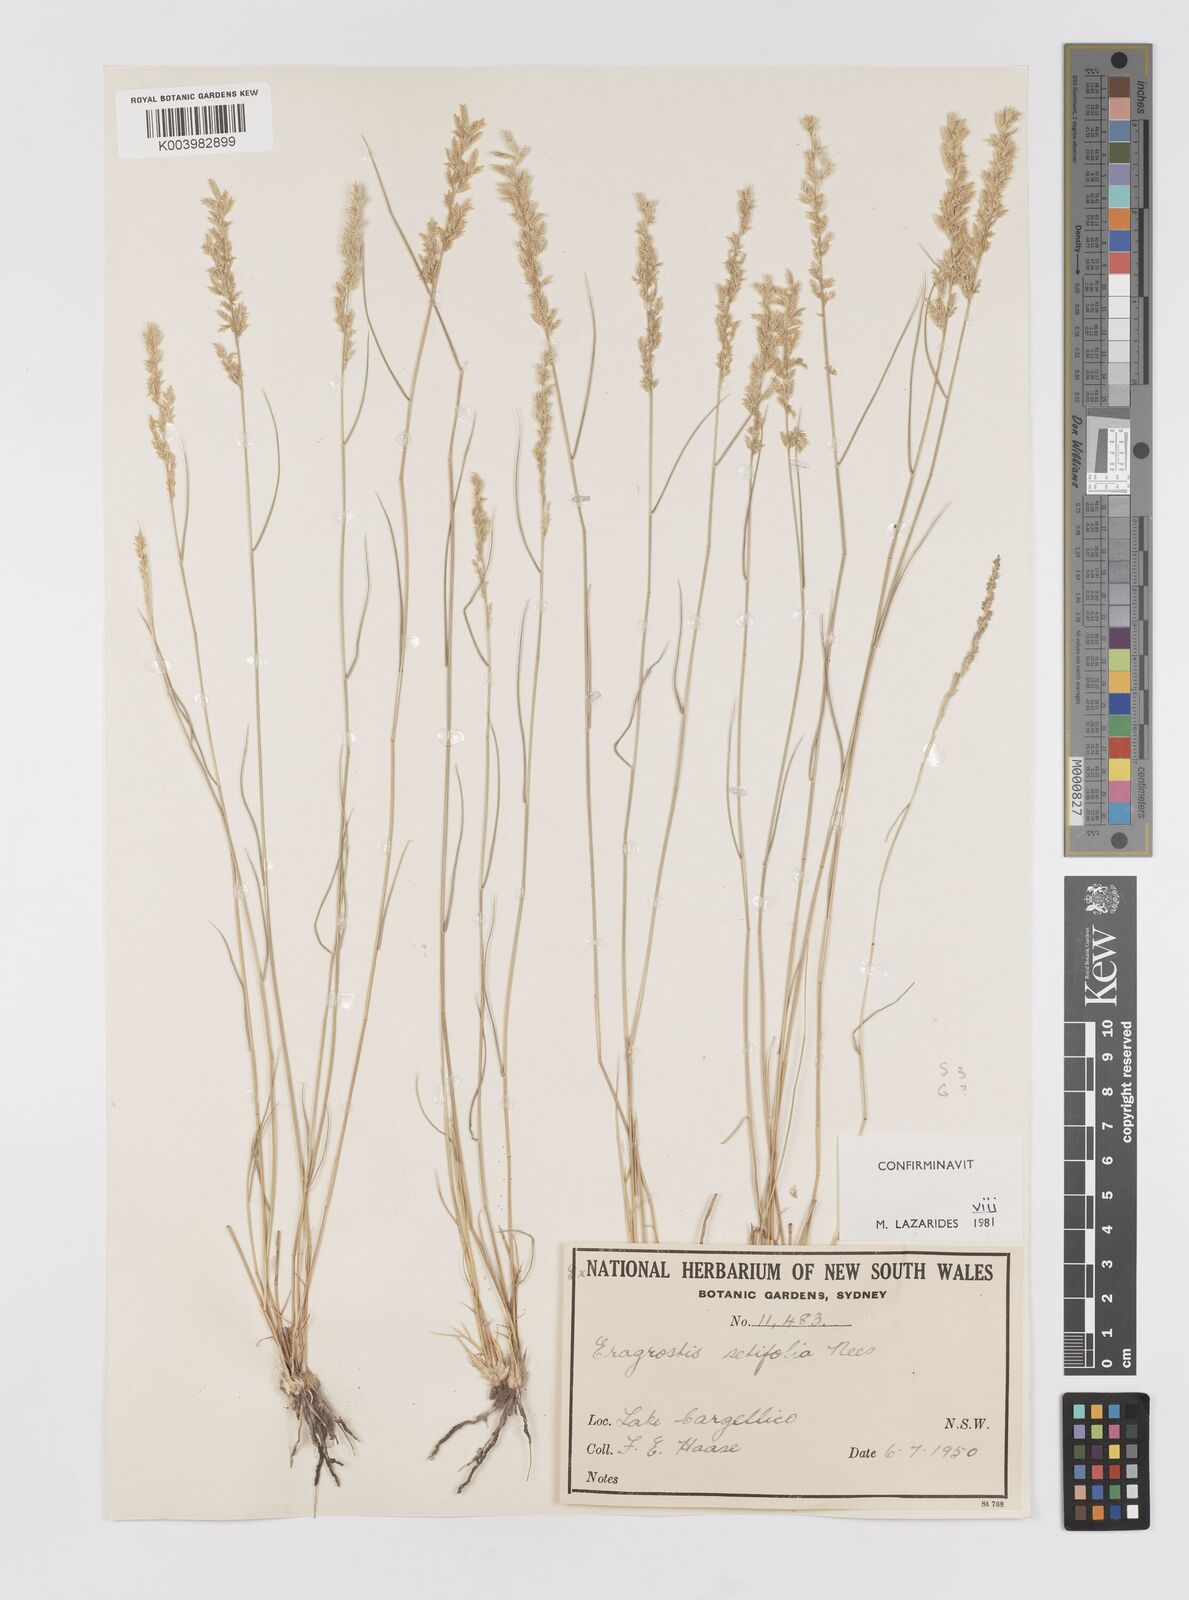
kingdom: Plantae
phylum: Tracheophyta
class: Liliopsida
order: Poales
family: Poaceae
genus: Eragrostis
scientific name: Eragrostis setifolia
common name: Bristleleaf lovegrass
